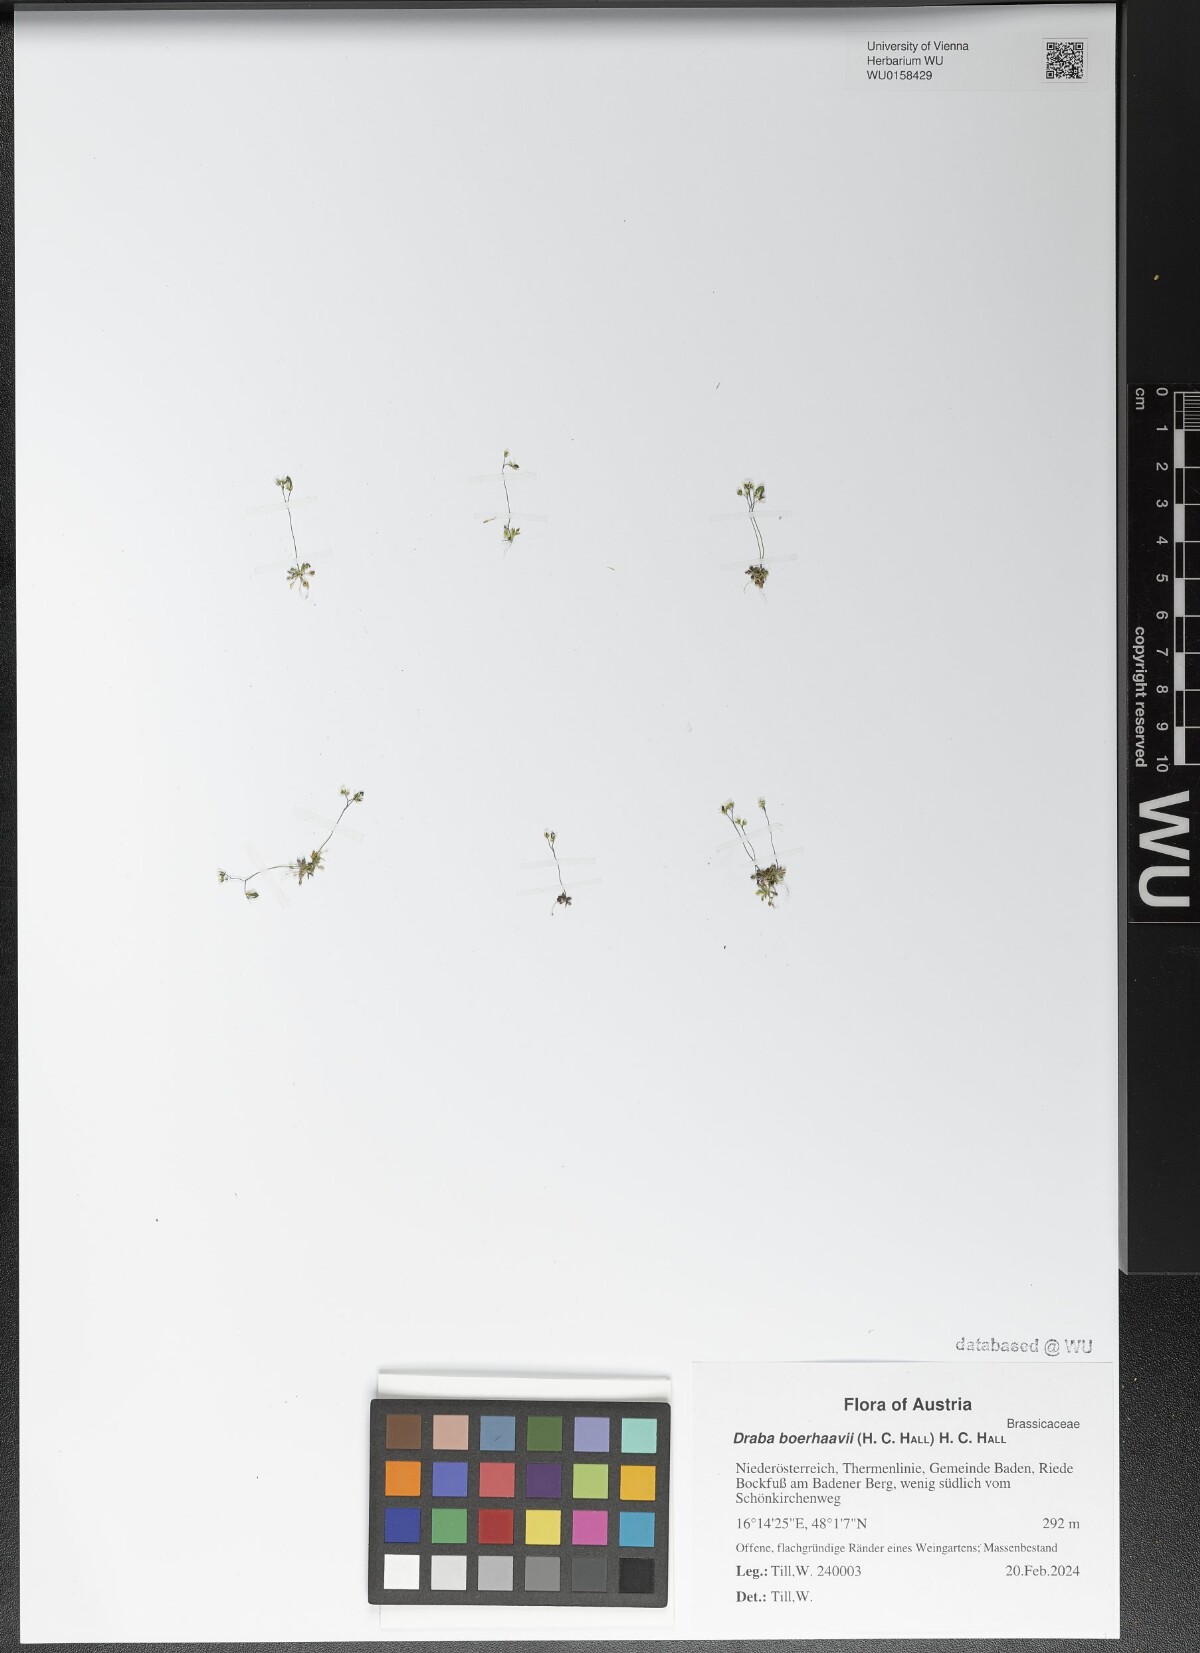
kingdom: Plantae
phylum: Tracheophyta
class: Magnoliopsida
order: Brassicales
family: Brassicaceae
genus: Draba
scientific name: Draba verna
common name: Spring draba
